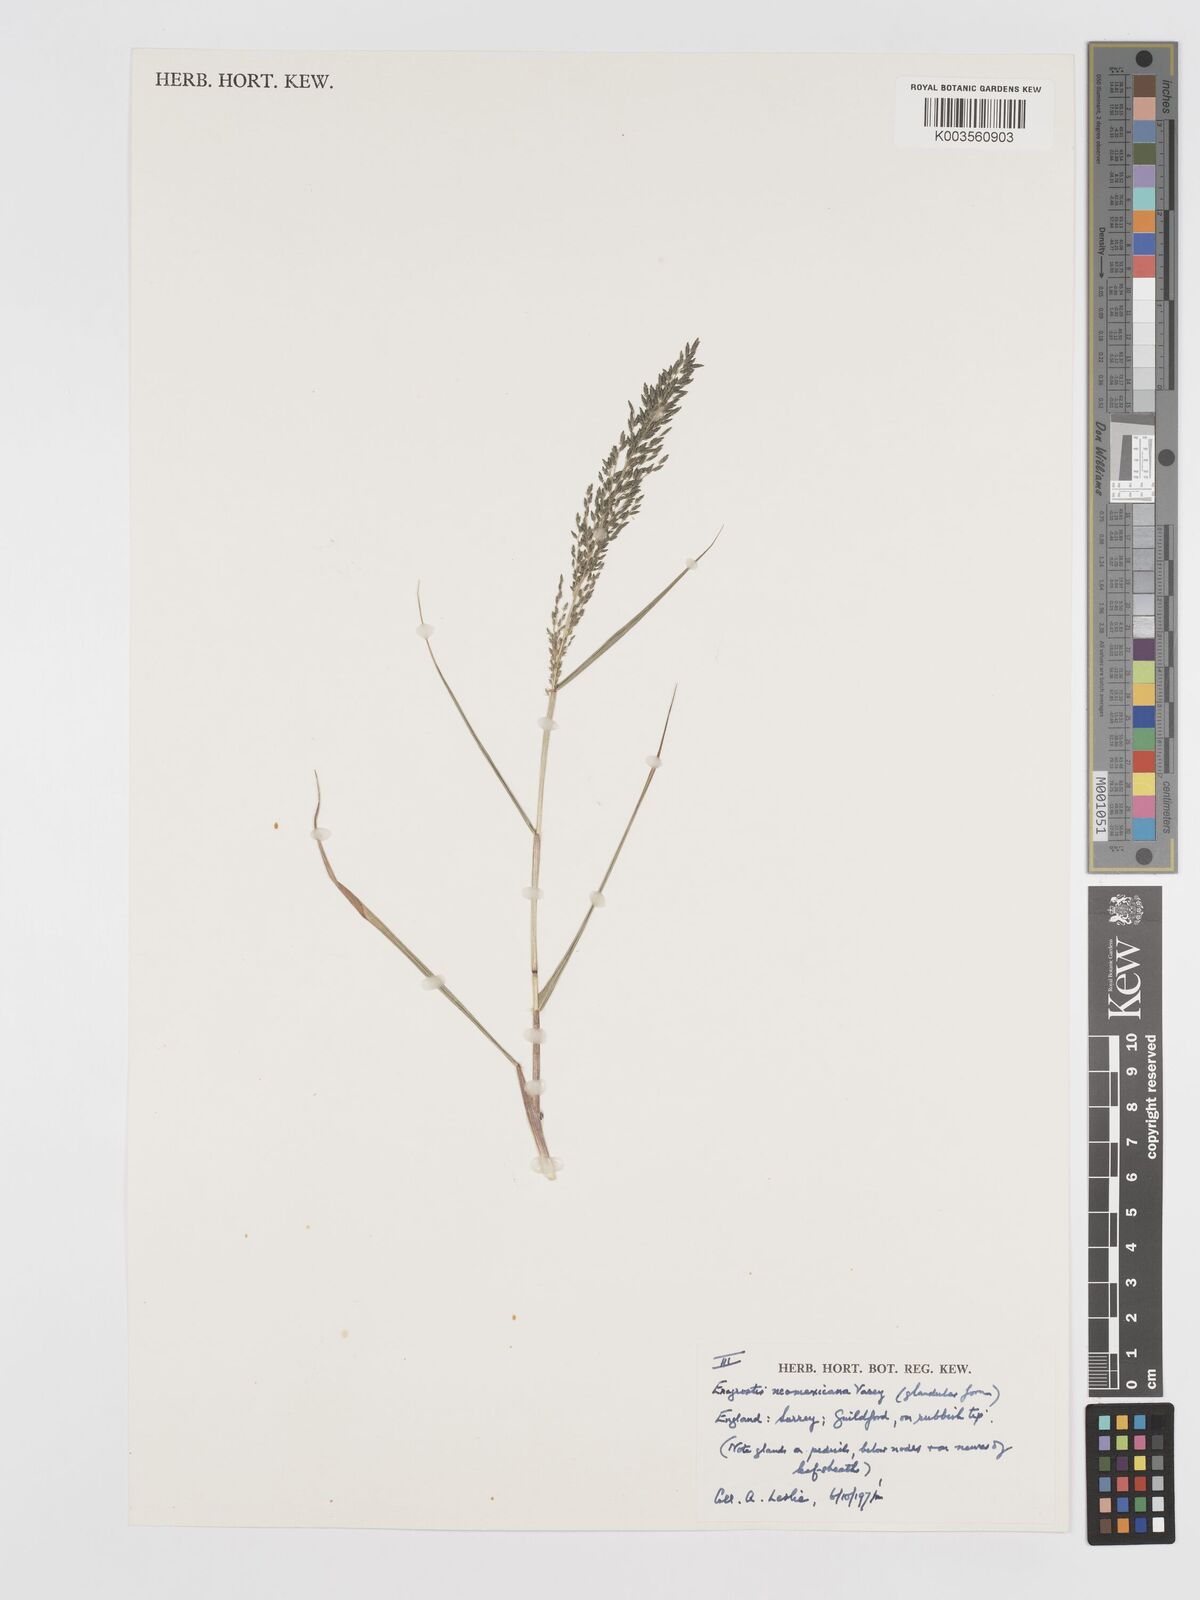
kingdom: Plantae
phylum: Tracheophyta
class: Liliopsida
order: Poales
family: Poaceae
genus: Eragrostis
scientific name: Eragrostis mexicana
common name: Mexican love grass
